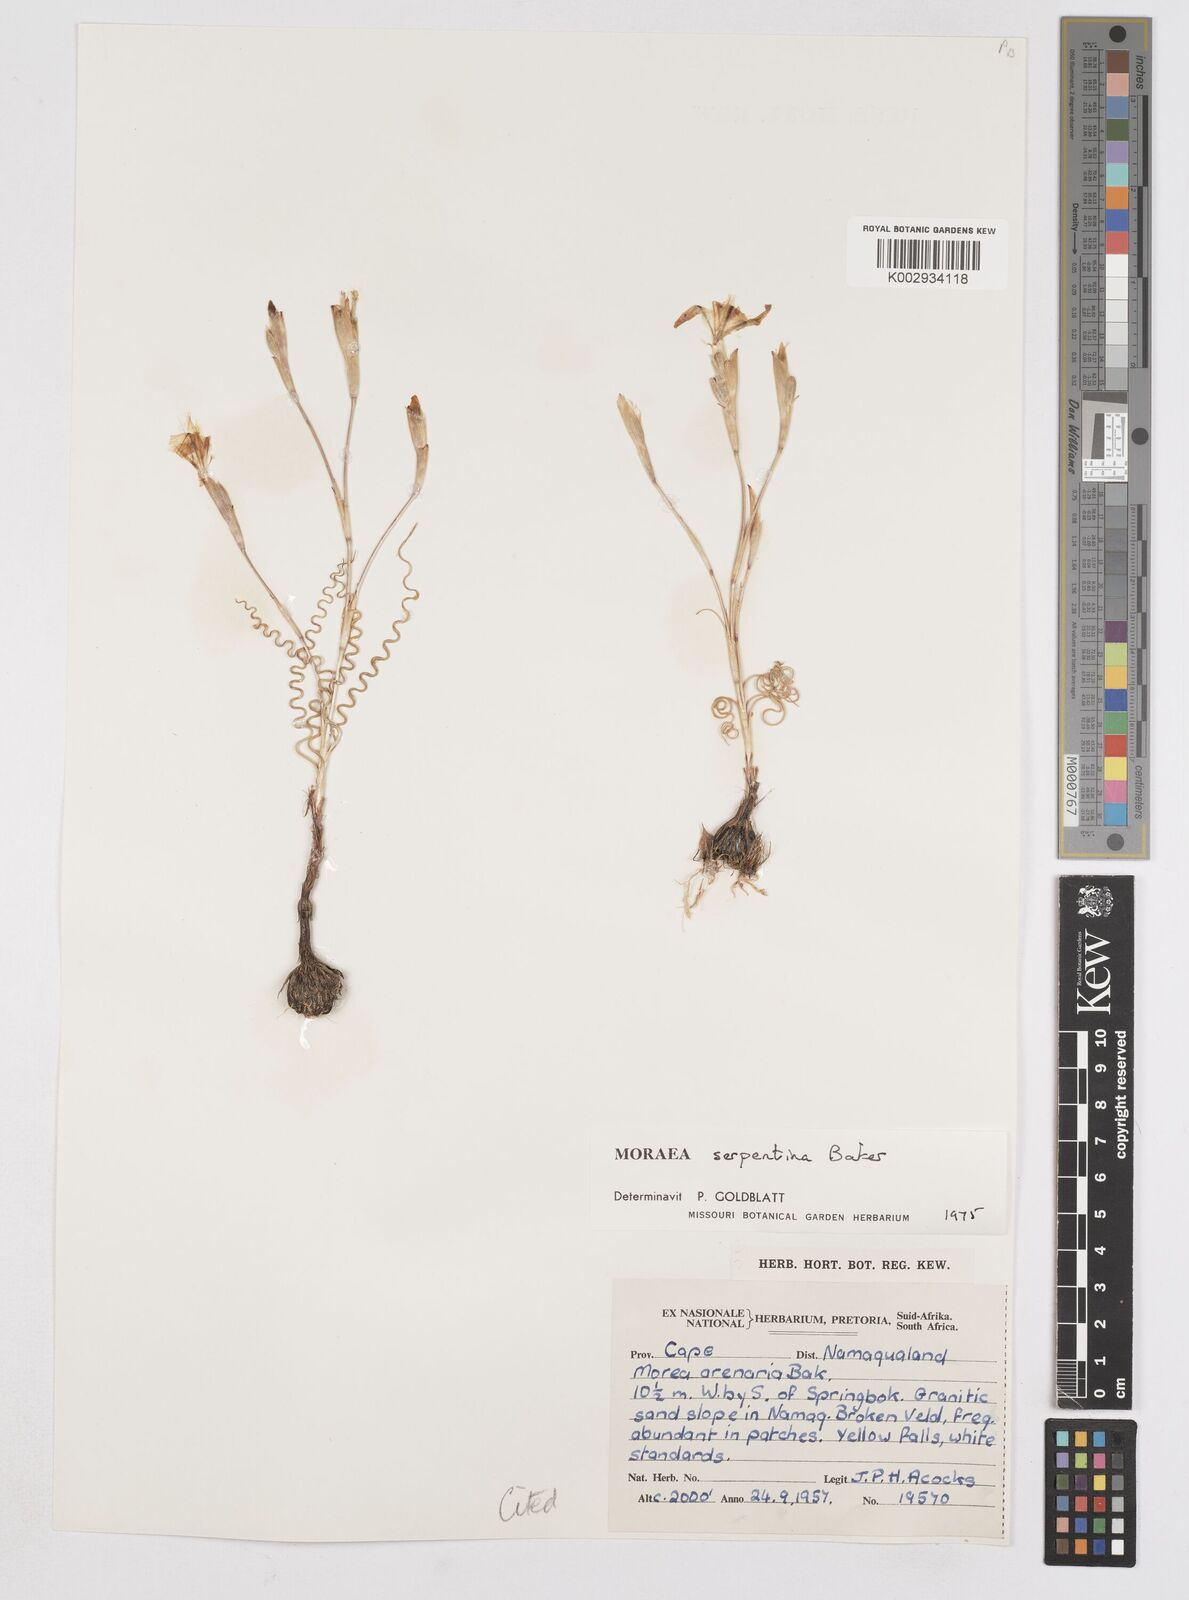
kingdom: Plantae
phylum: Tracheophyta
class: Liliopsida
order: Asparagales
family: Iridaceae
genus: Moraea
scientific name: Moraea serpentina
